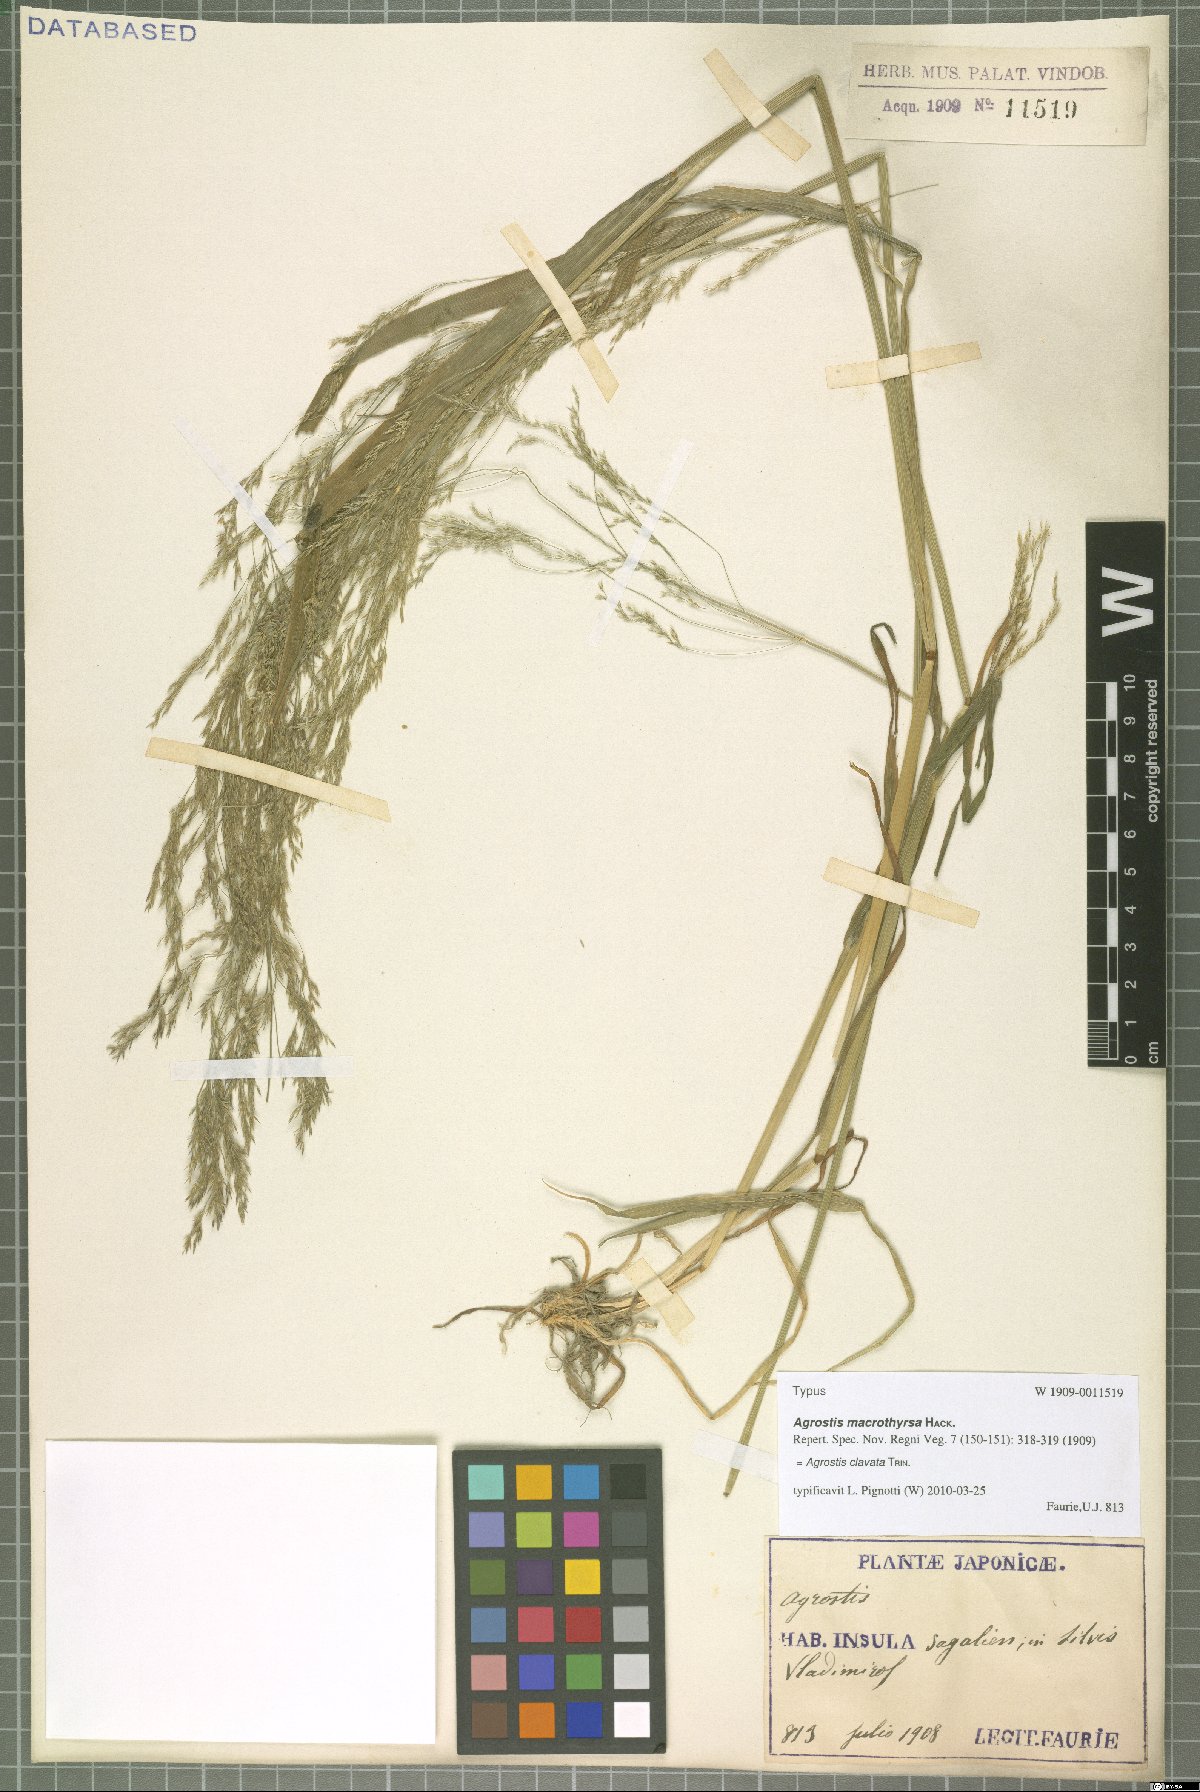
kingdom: Plantae
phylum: Tracheophyta
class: Liliopsida
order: Poales
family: Poaceae
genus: Agrostis
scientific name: Agrostis clavata
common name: Clavate bent
